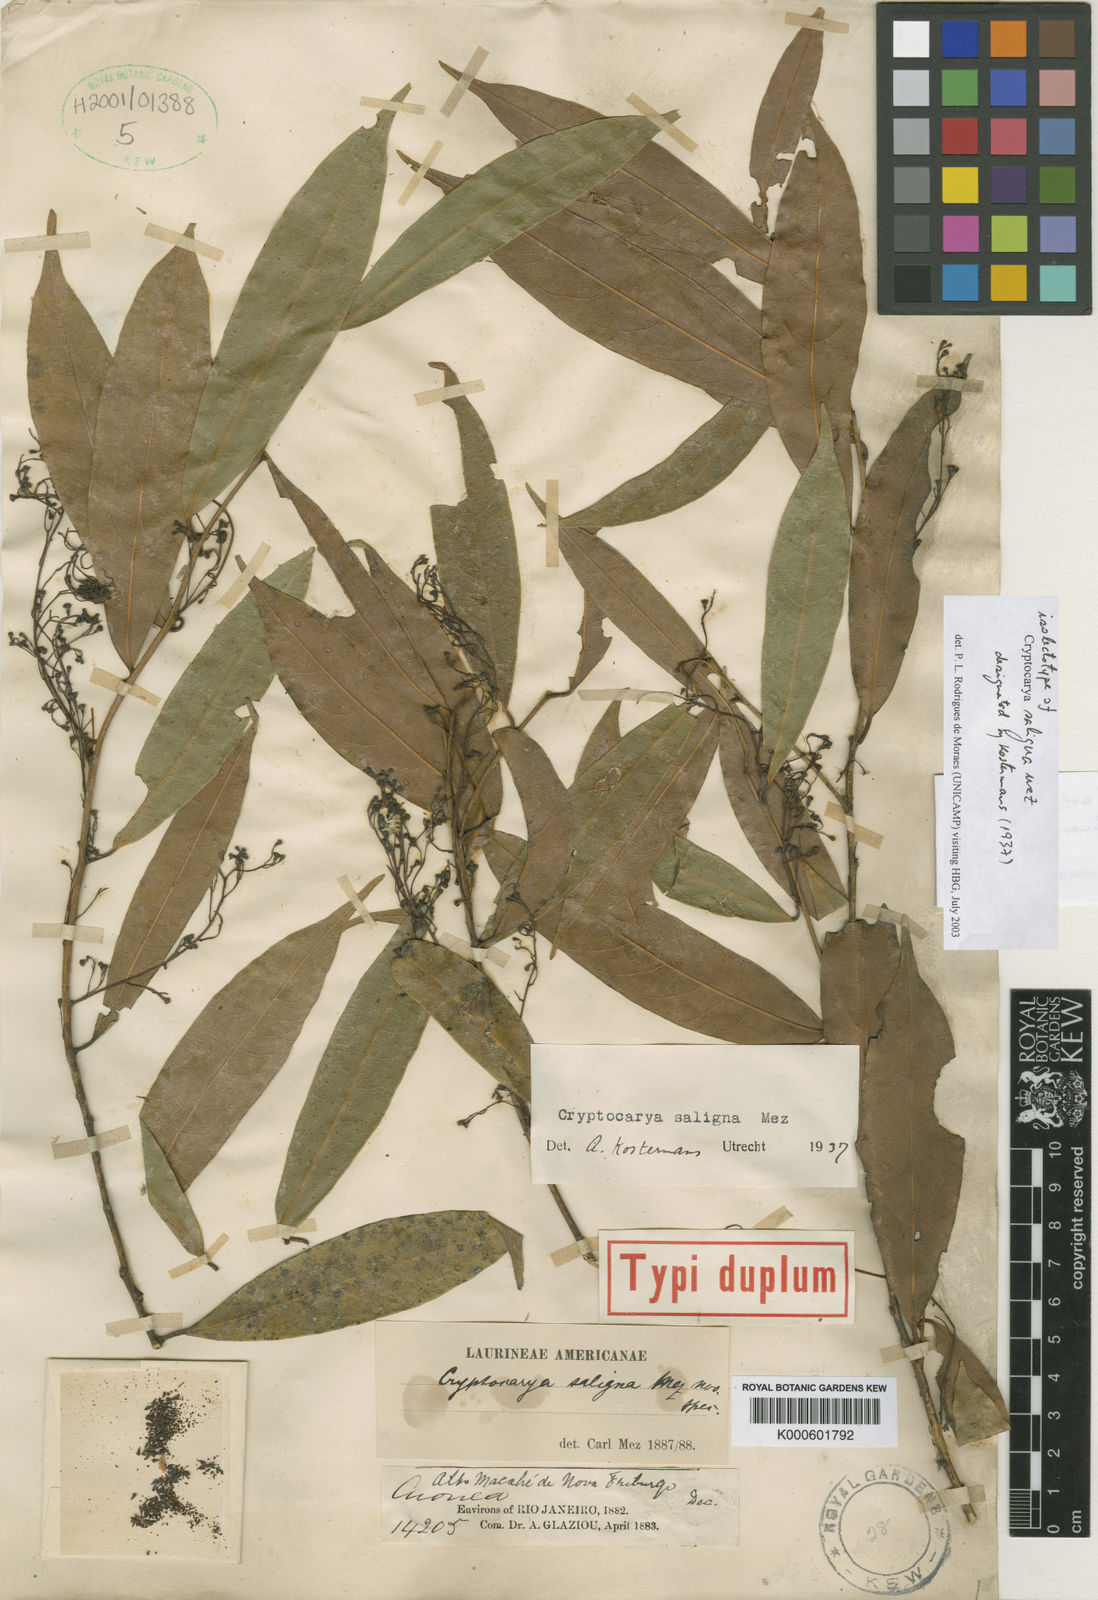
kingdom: Plantae
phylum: Tracheophyta
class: Magnoliopsida
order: Laurales
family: Lauraceae
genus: Cryptocarya
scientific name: Cryptocarya saligna
